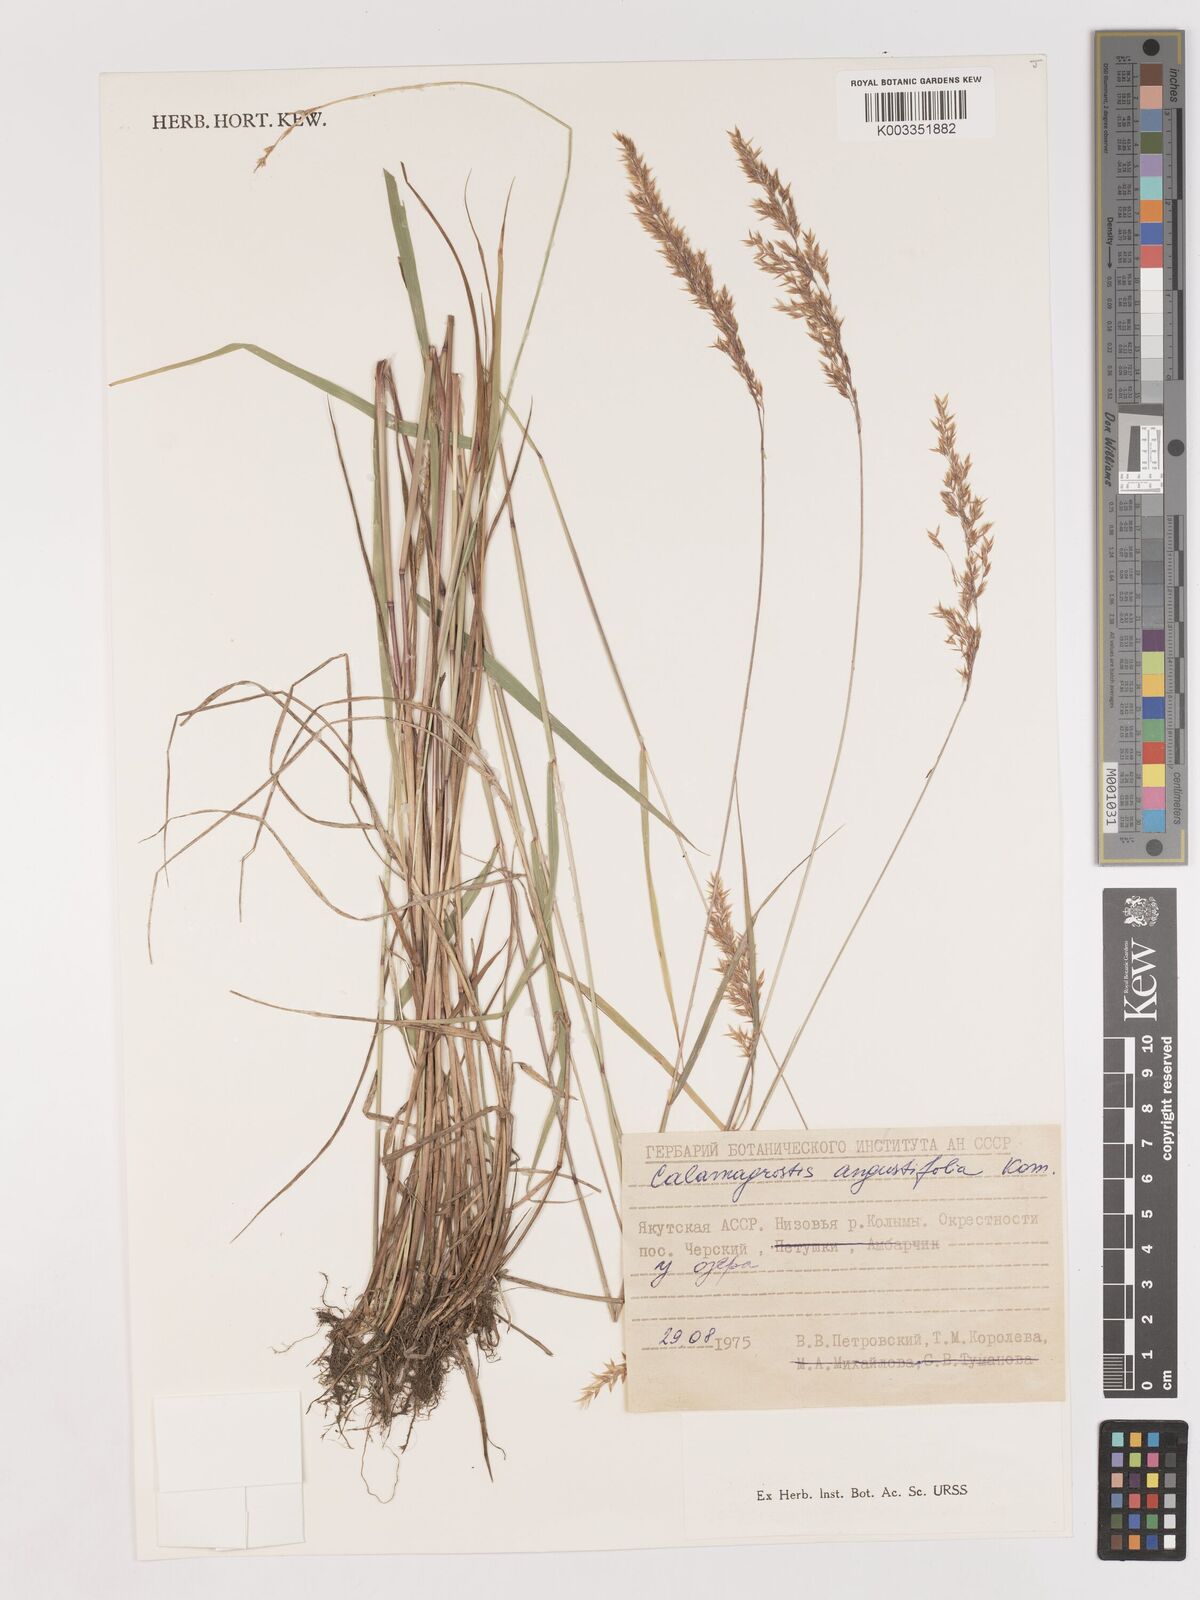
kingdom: Plantae
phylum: Tracheophyta
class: Liliopsida
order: Poales
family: Poaceae
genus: Calamagrostis
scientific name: Calamagrostis angustifolia
